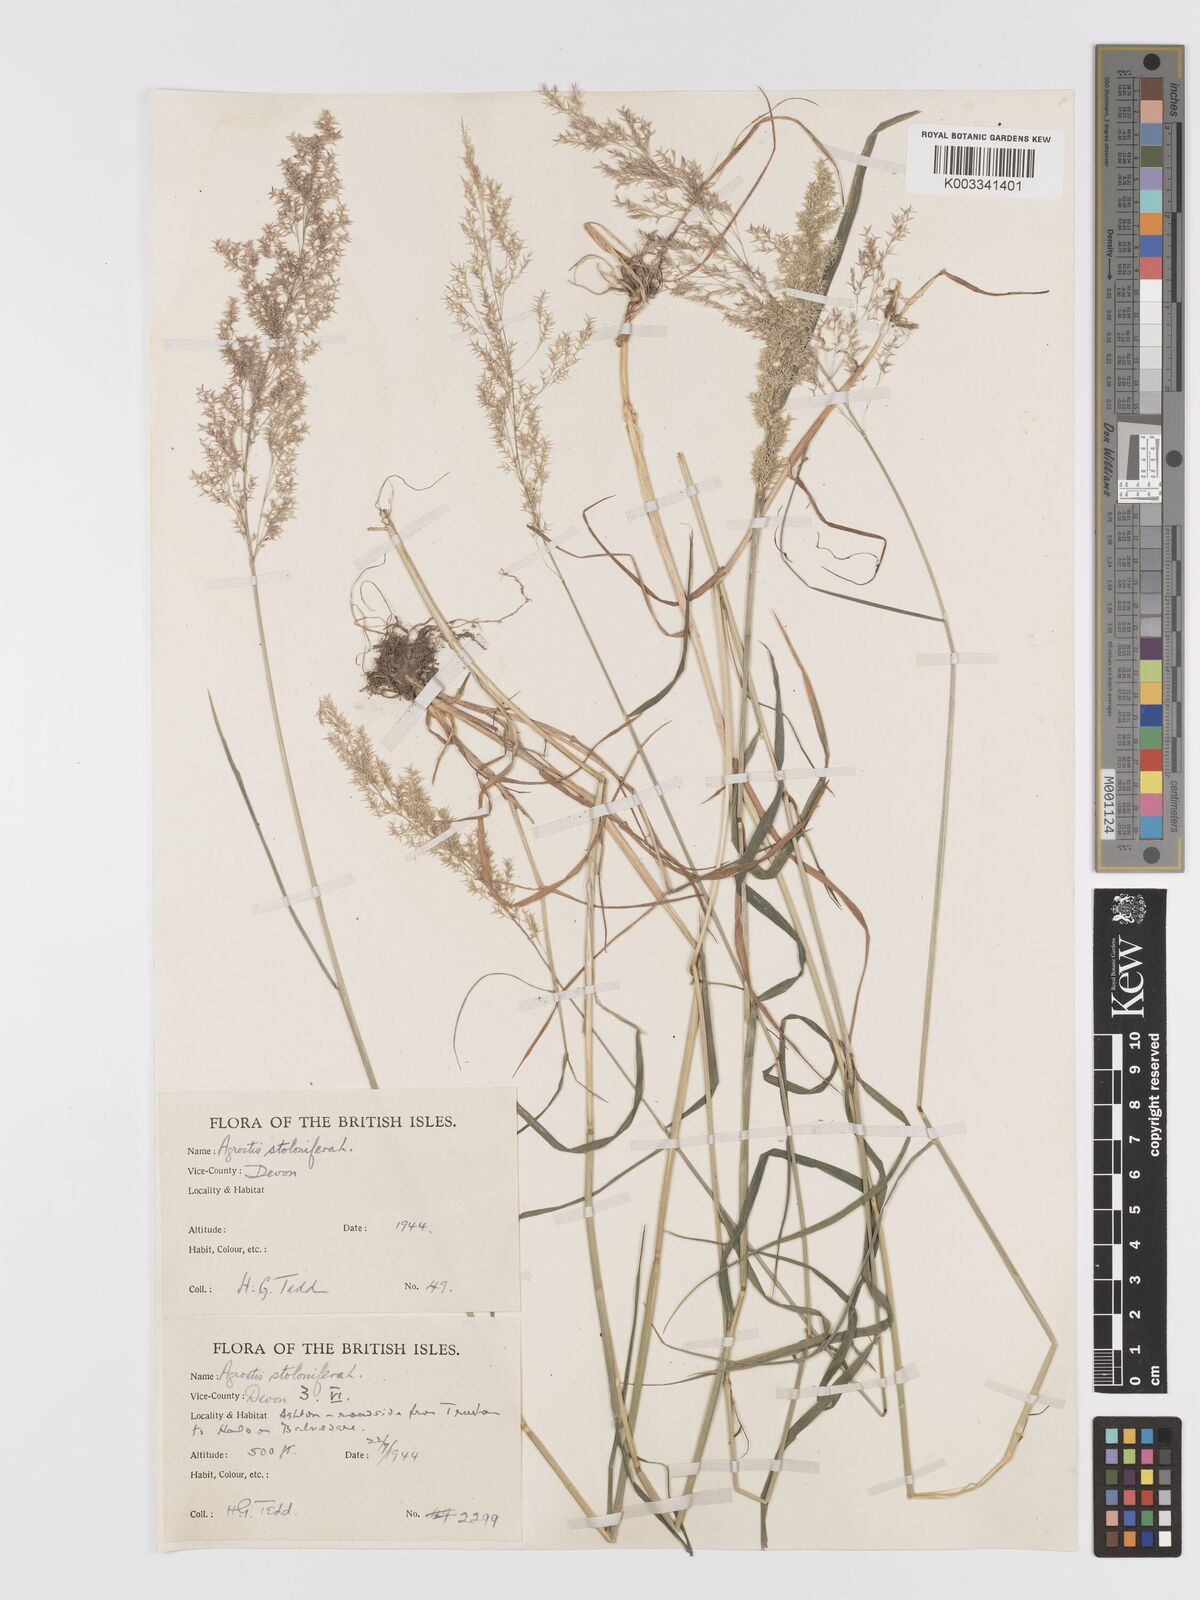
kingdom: Plantae
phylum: Tracheophyta
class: Liliopsida
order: Poales
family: Poaceae
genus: Agrostis
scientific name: Agrostis stolonifera
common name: Creeping bentgrass
